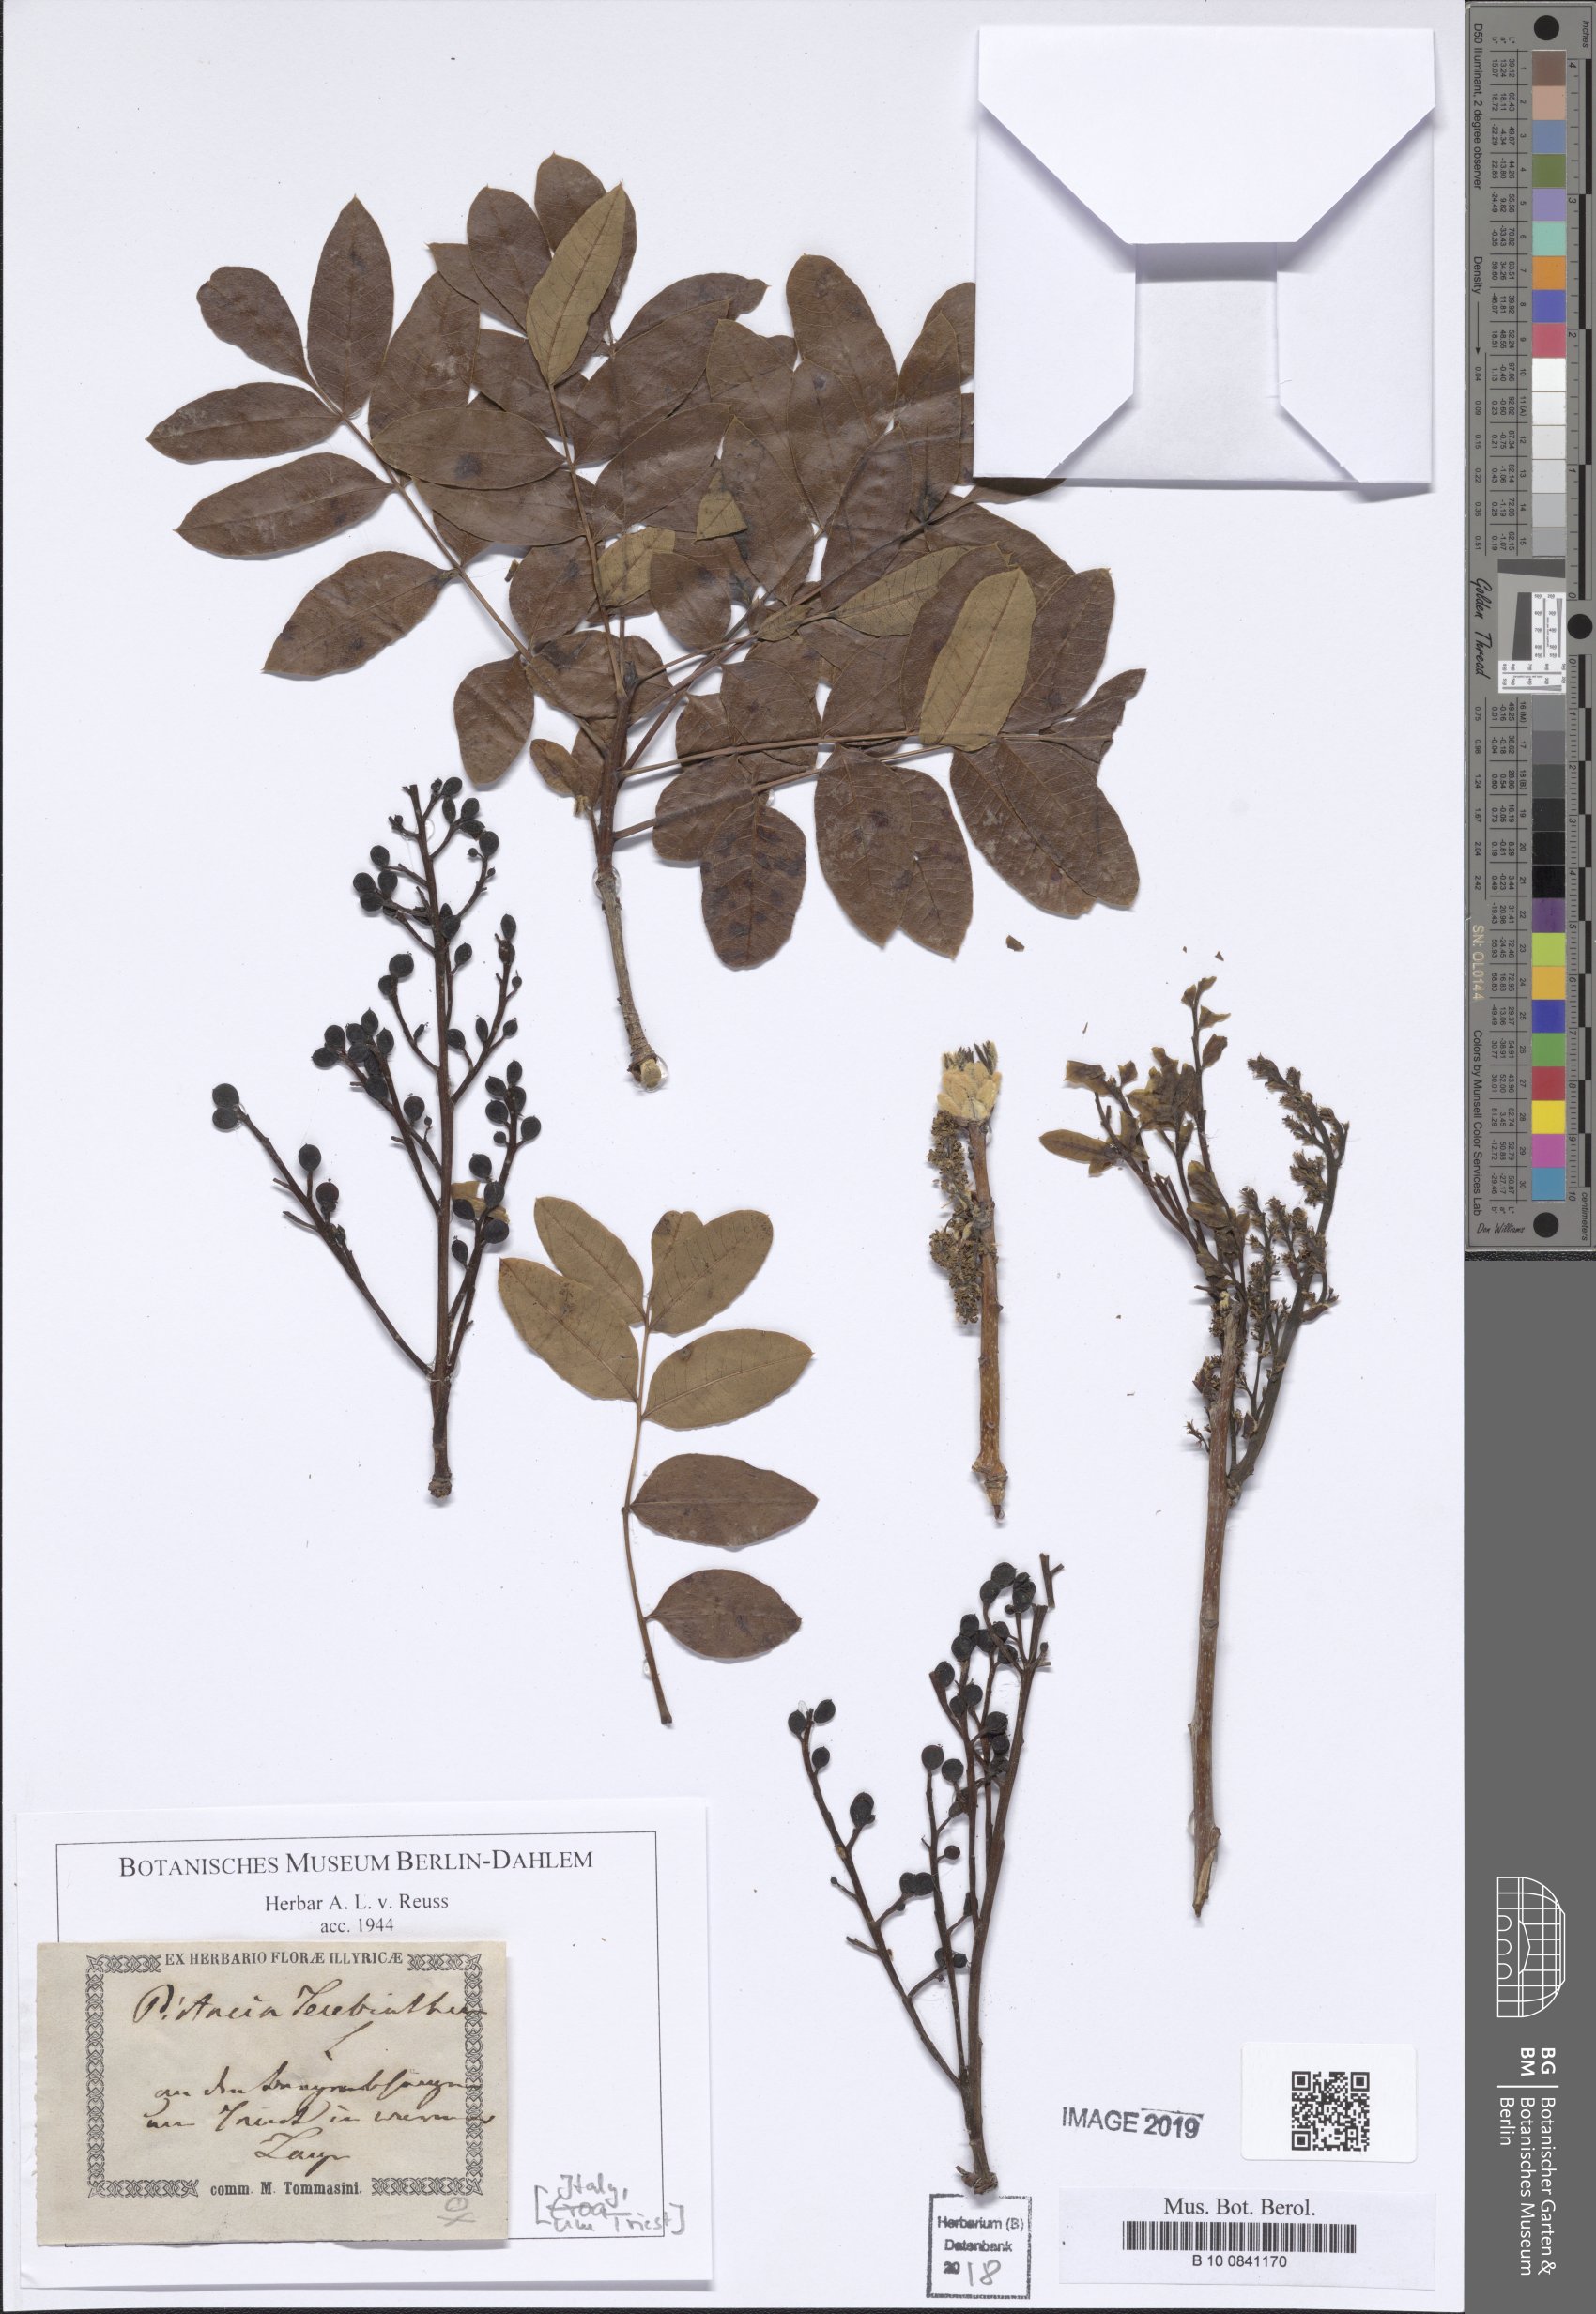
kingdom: Plantae
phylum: Tracheophyta
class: Magnoliopsida
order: Sapindales
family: Anacardiaceae
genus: Pistacia
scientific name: Pistacia terebinthus
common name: Terebinth
